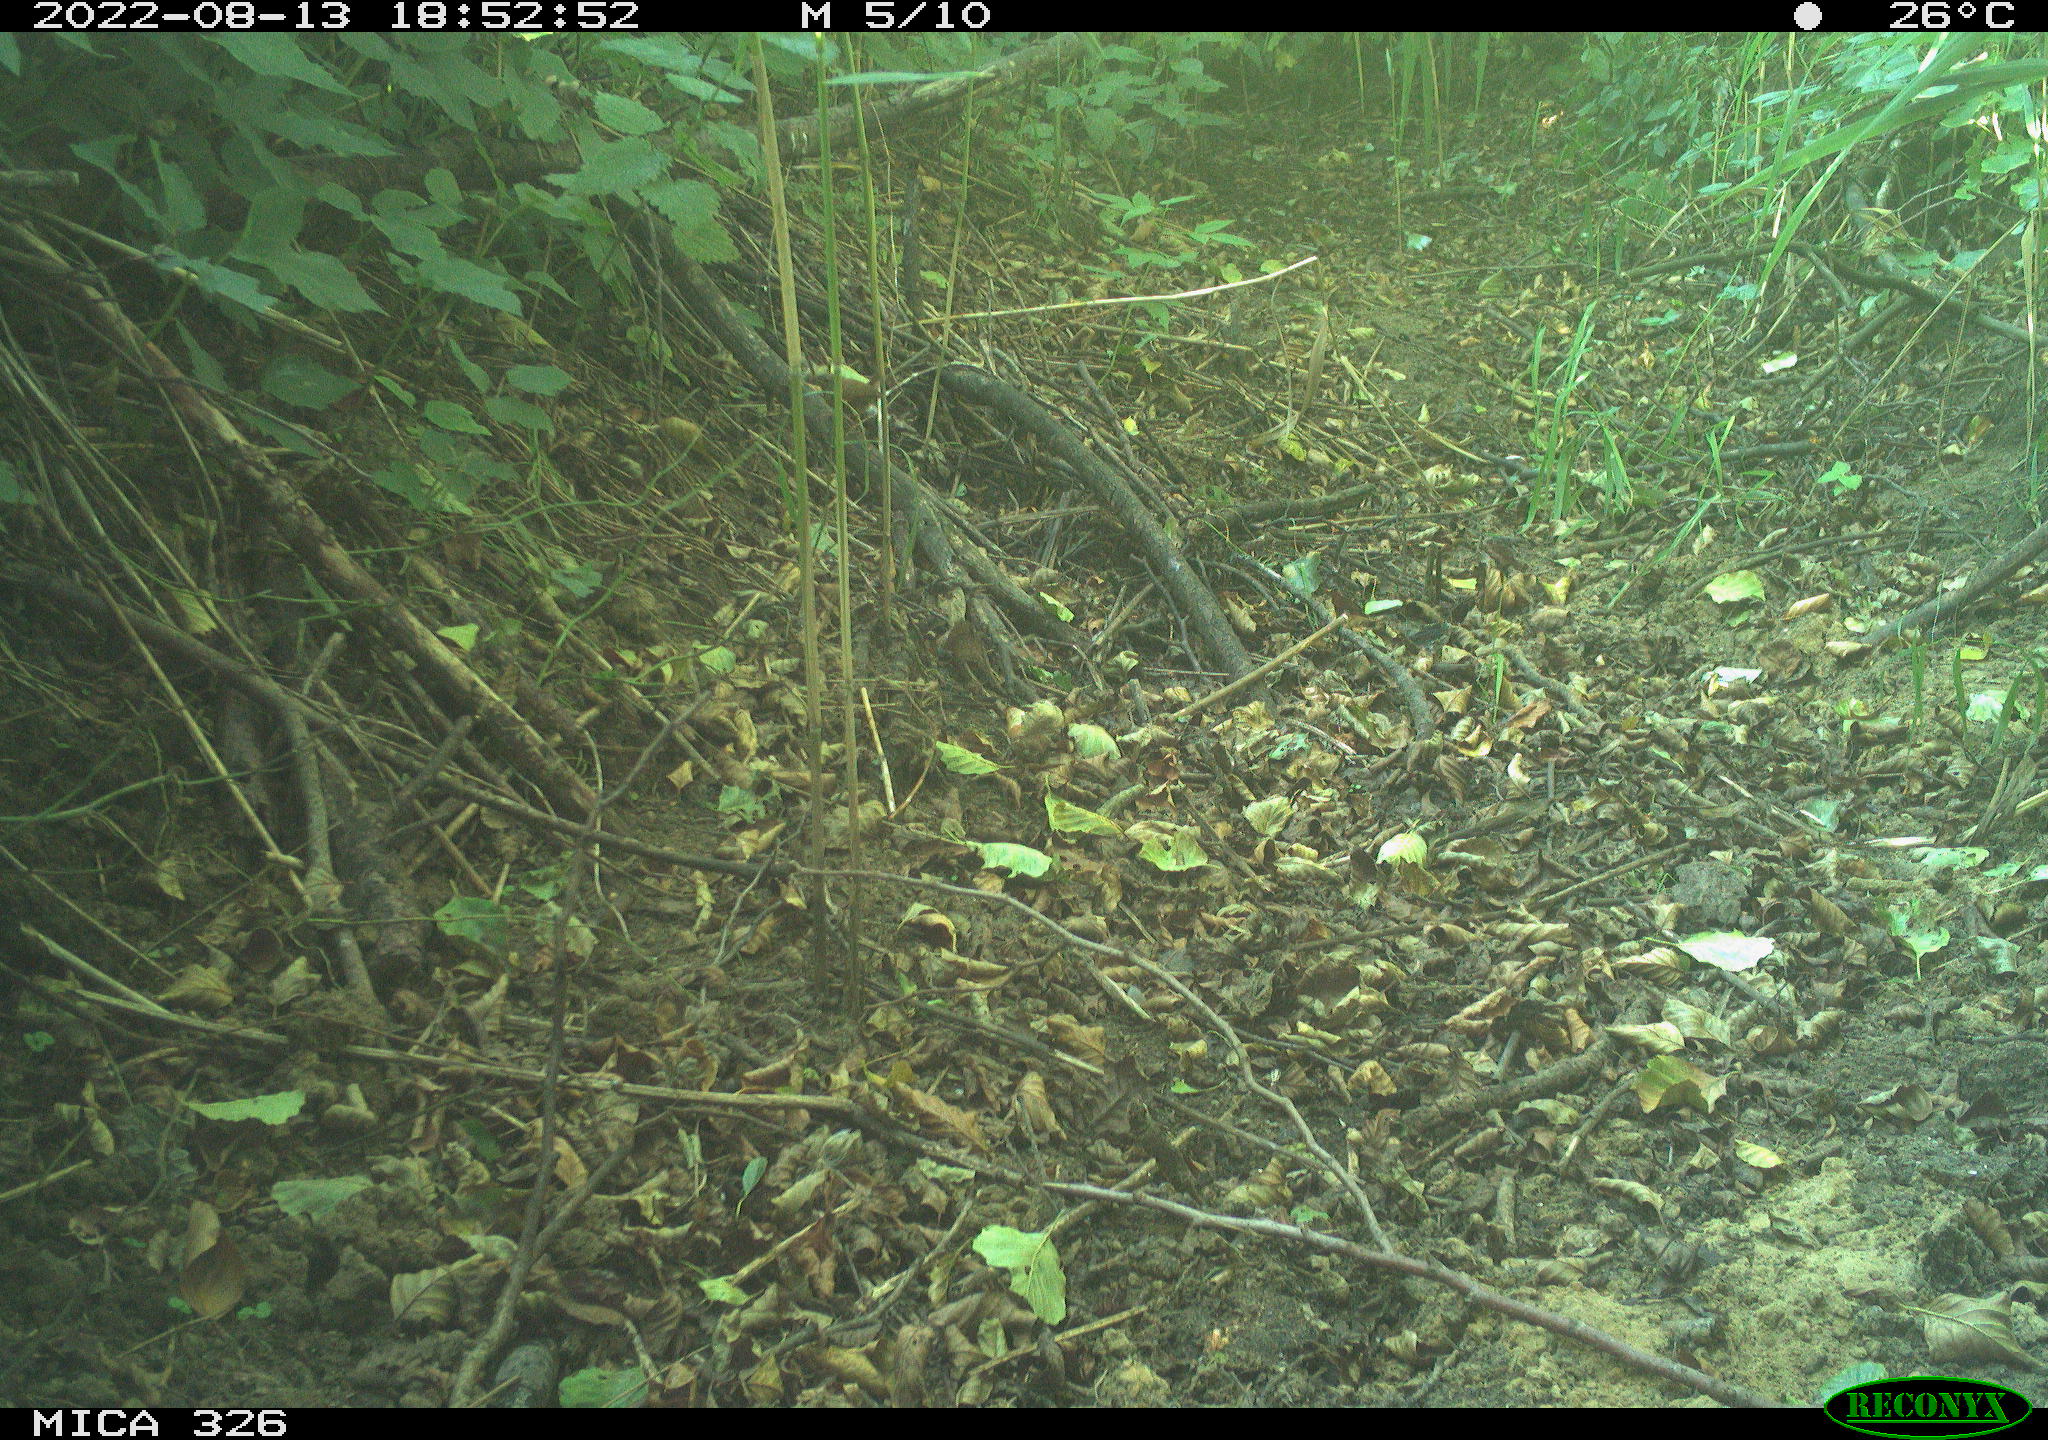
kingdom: Animalia
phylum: Chordata
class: Aves
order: Passeriformes
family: Troglodytidae
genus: Troglodytes
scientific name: Troglodytes troglodytes
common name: Eurasian wren
